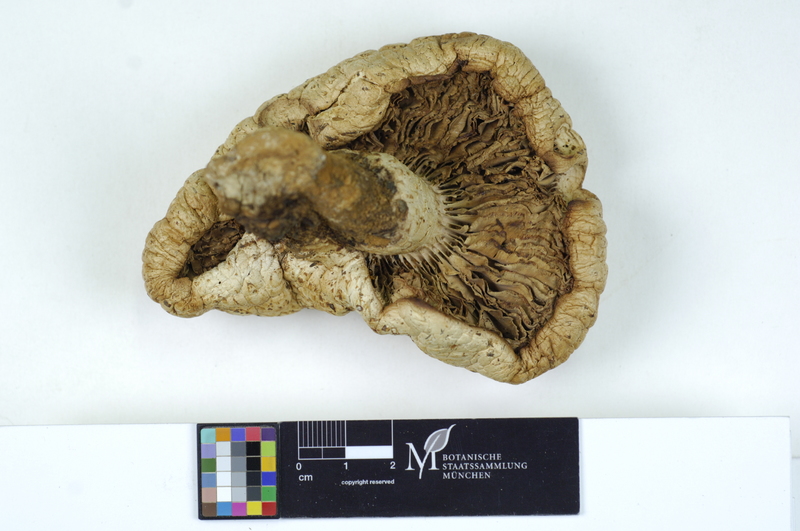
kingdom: Fungi
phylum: Basidiomycota
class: Agaricomycetes
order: Gloeophyllales
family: Gloeophyllaceae
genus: Neolentinus
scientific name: Neolentinus lepideus
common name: Scaly sawgill
